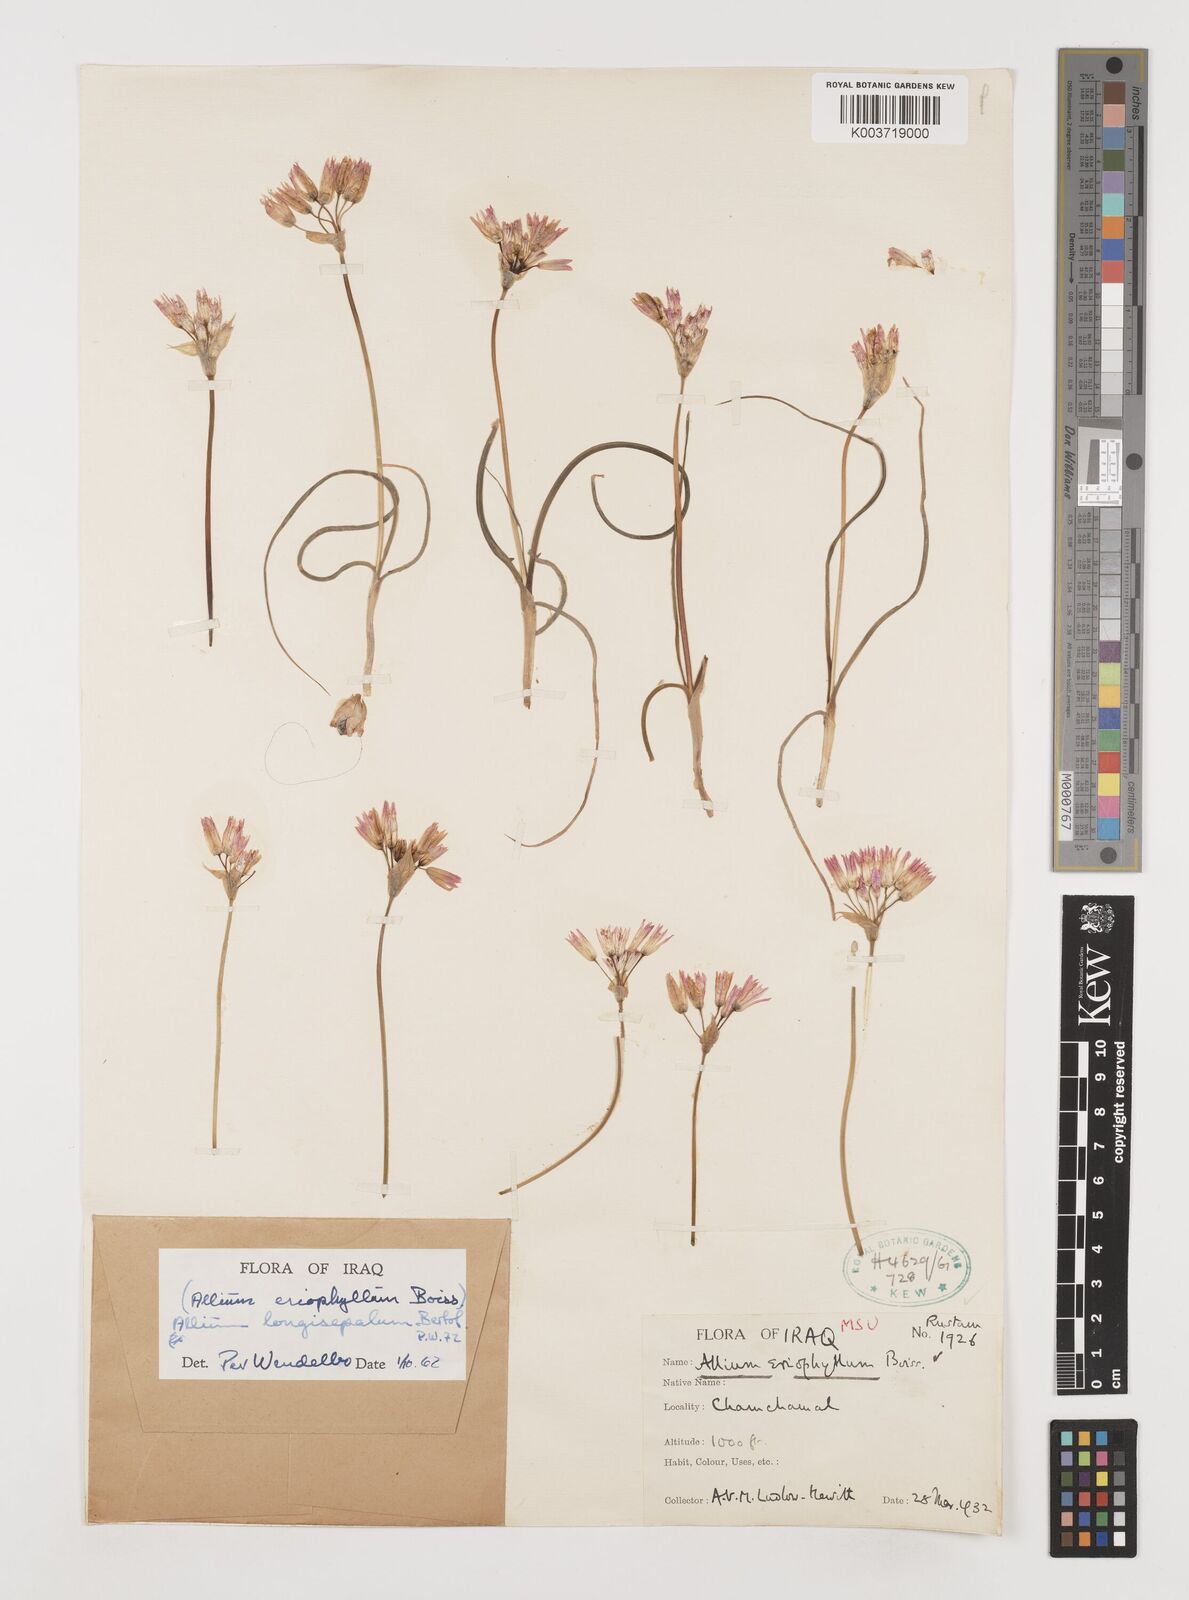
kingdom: Plantae
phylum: Tracheophyta
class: Liliopsida
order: Asparagales
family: Amaryllidaceae
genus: Allium
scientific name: Allium longisepalum
